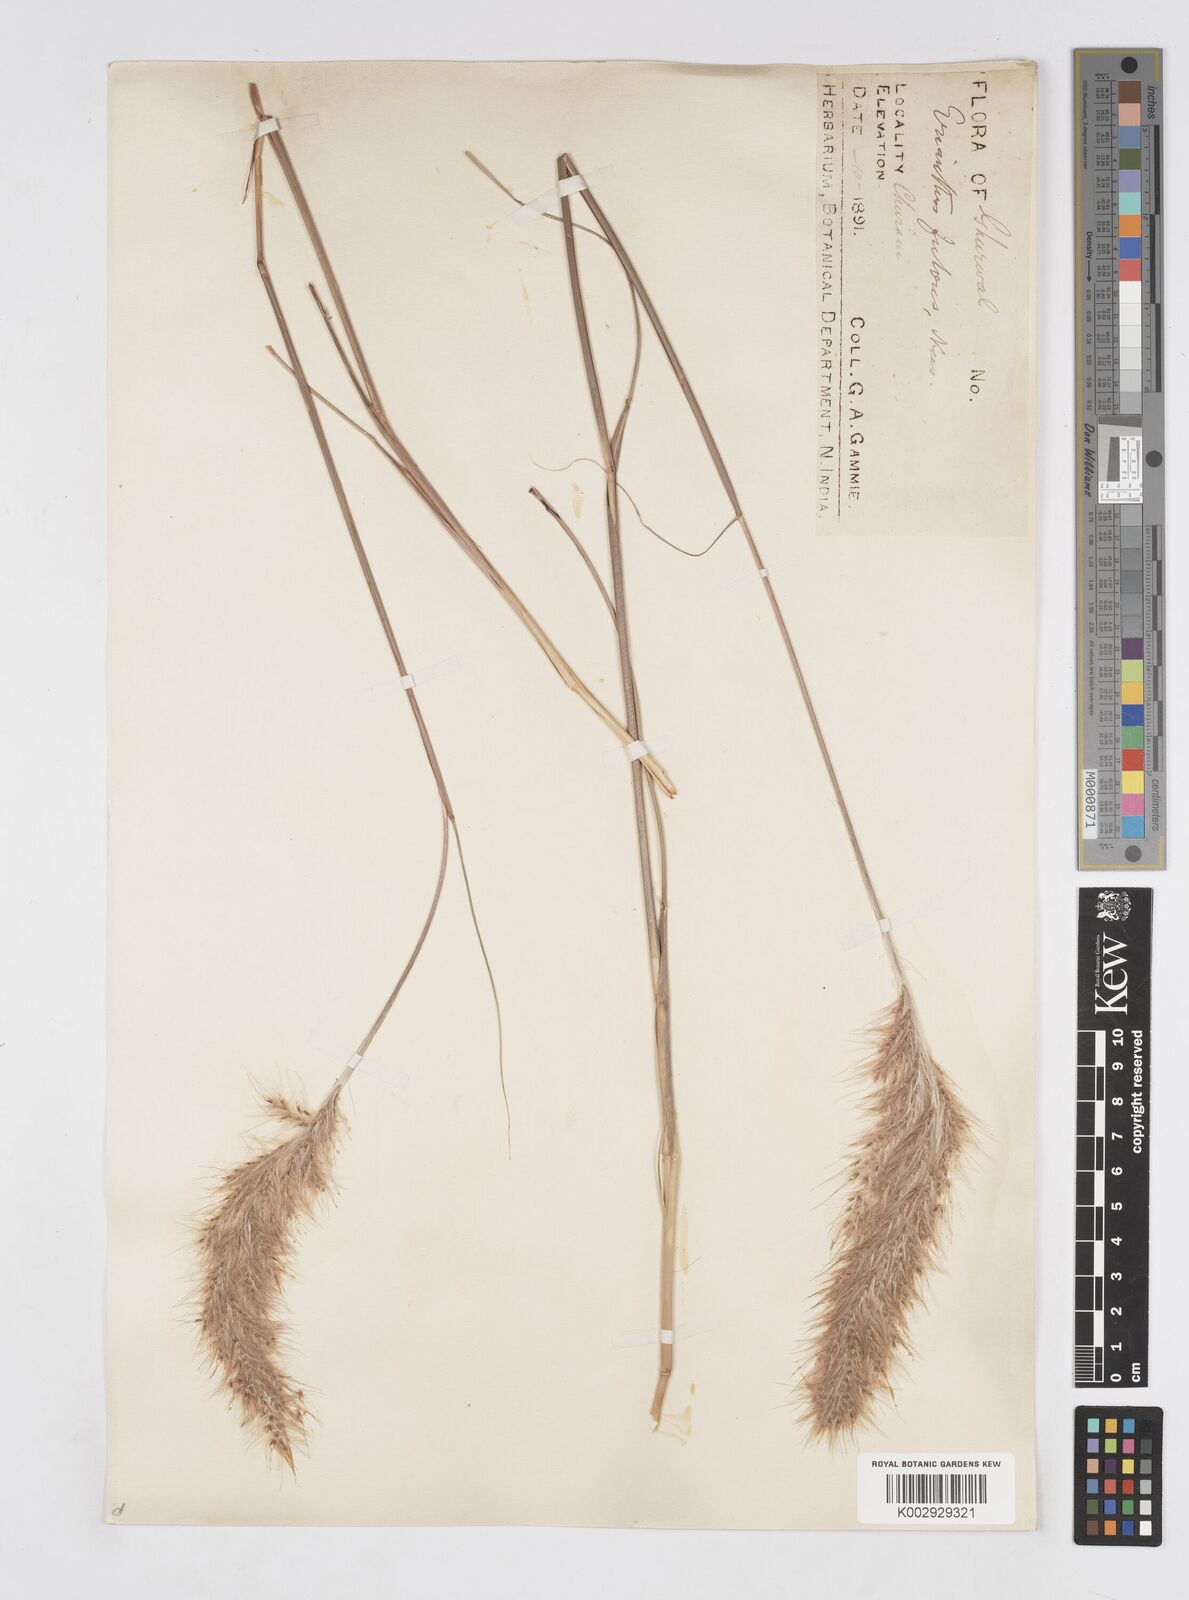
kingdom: Plantae
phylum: Tracheophyta
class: Liliopsida
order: Poales
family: Poaceae
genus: Tripidium
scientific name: Tripidium rufipilum
